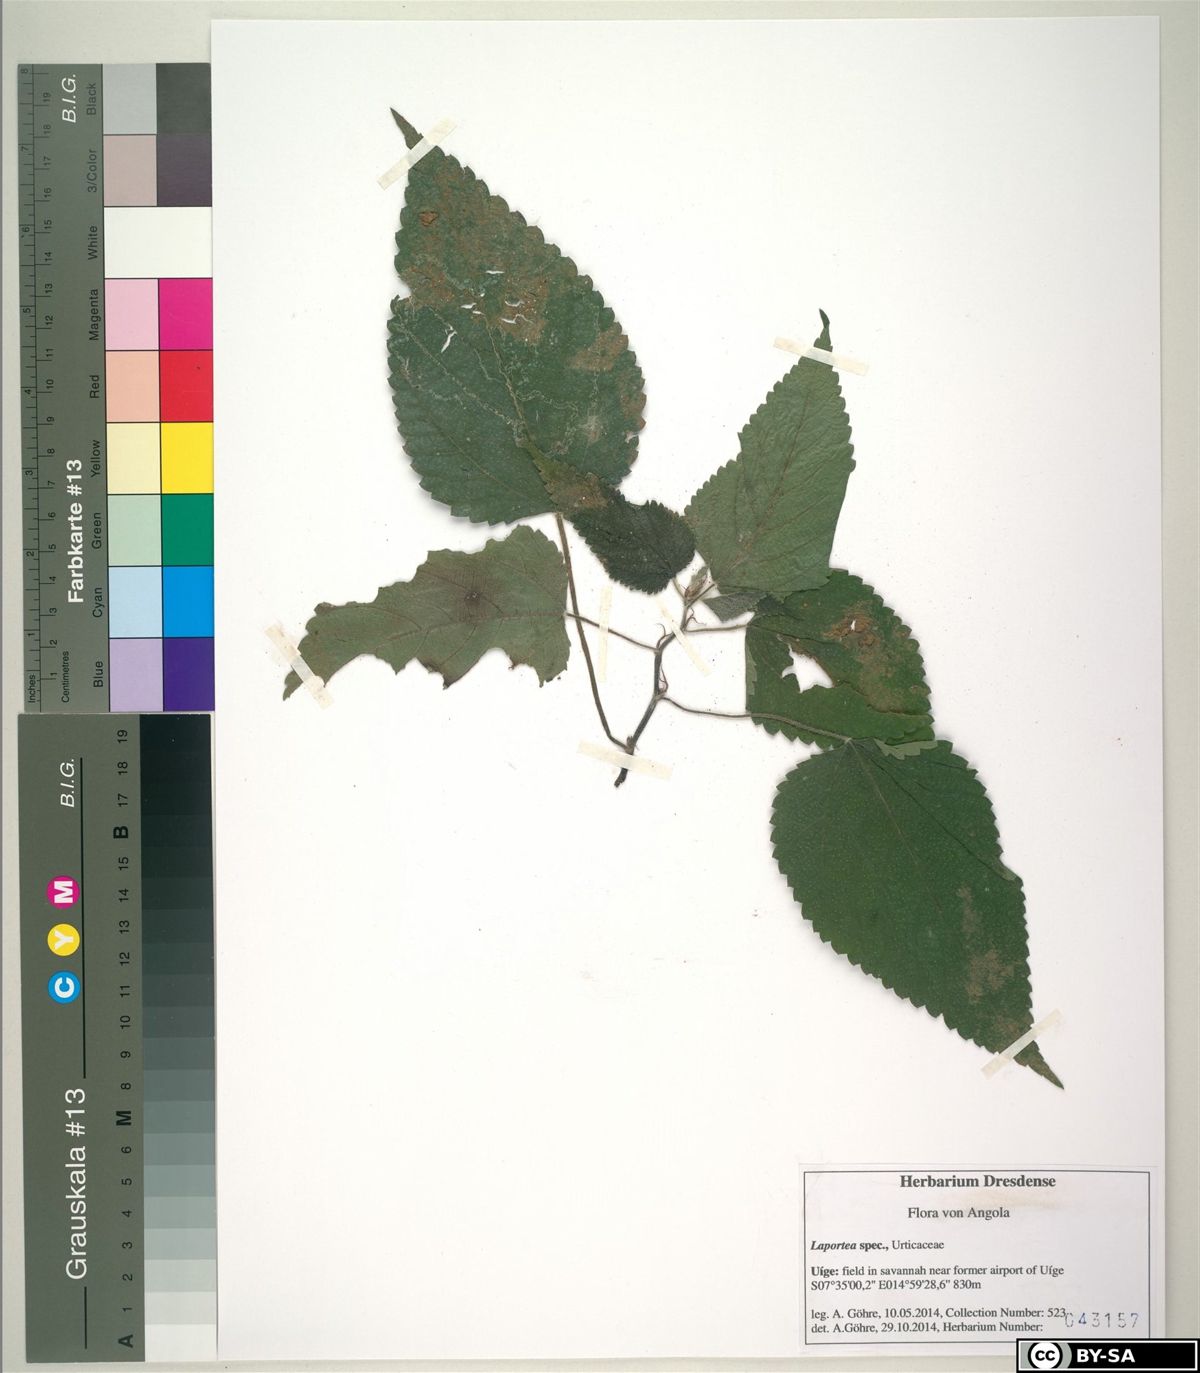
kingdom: Plantae
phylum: Tracheophyta
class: Magnoliopsida
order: Rosales
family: Urticaceae
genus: Laportea
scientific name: Laportea
